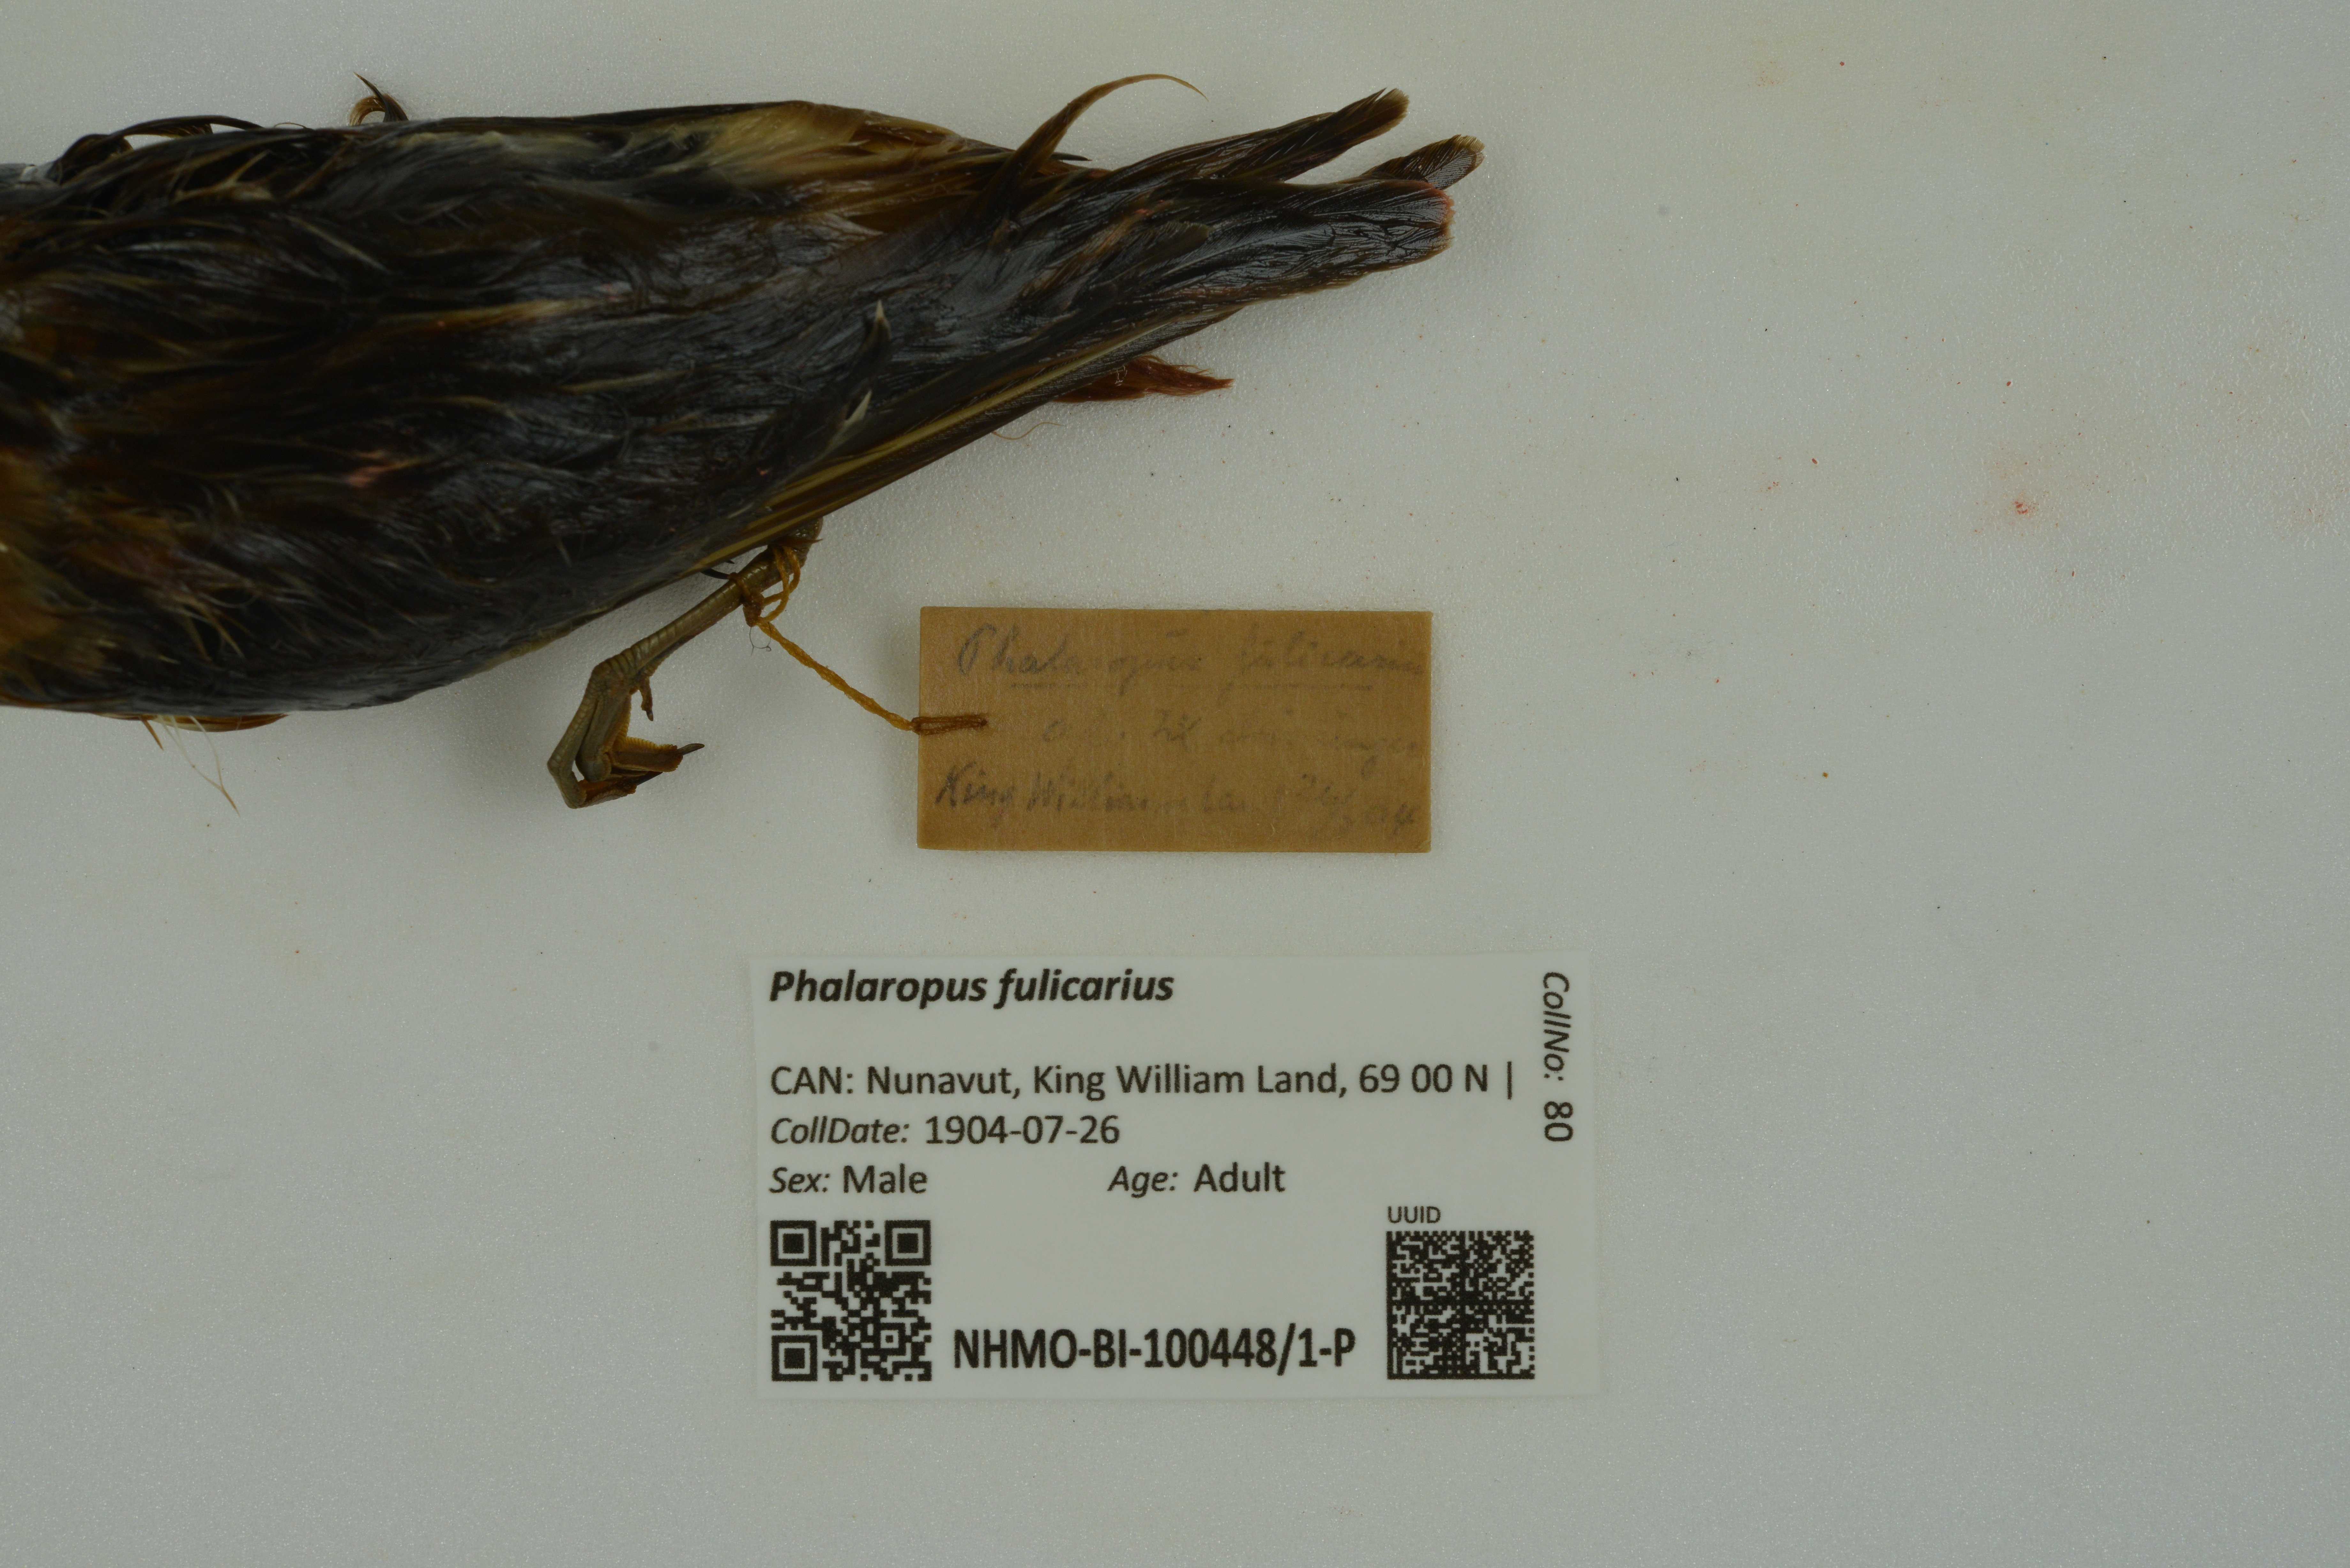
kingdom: Animalia
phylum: Chordata
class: Aves
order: Charadriiformes
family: Scolopacidae
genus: Phalaropus
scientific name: Phalaropus fulicarius
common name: Red phalarope
